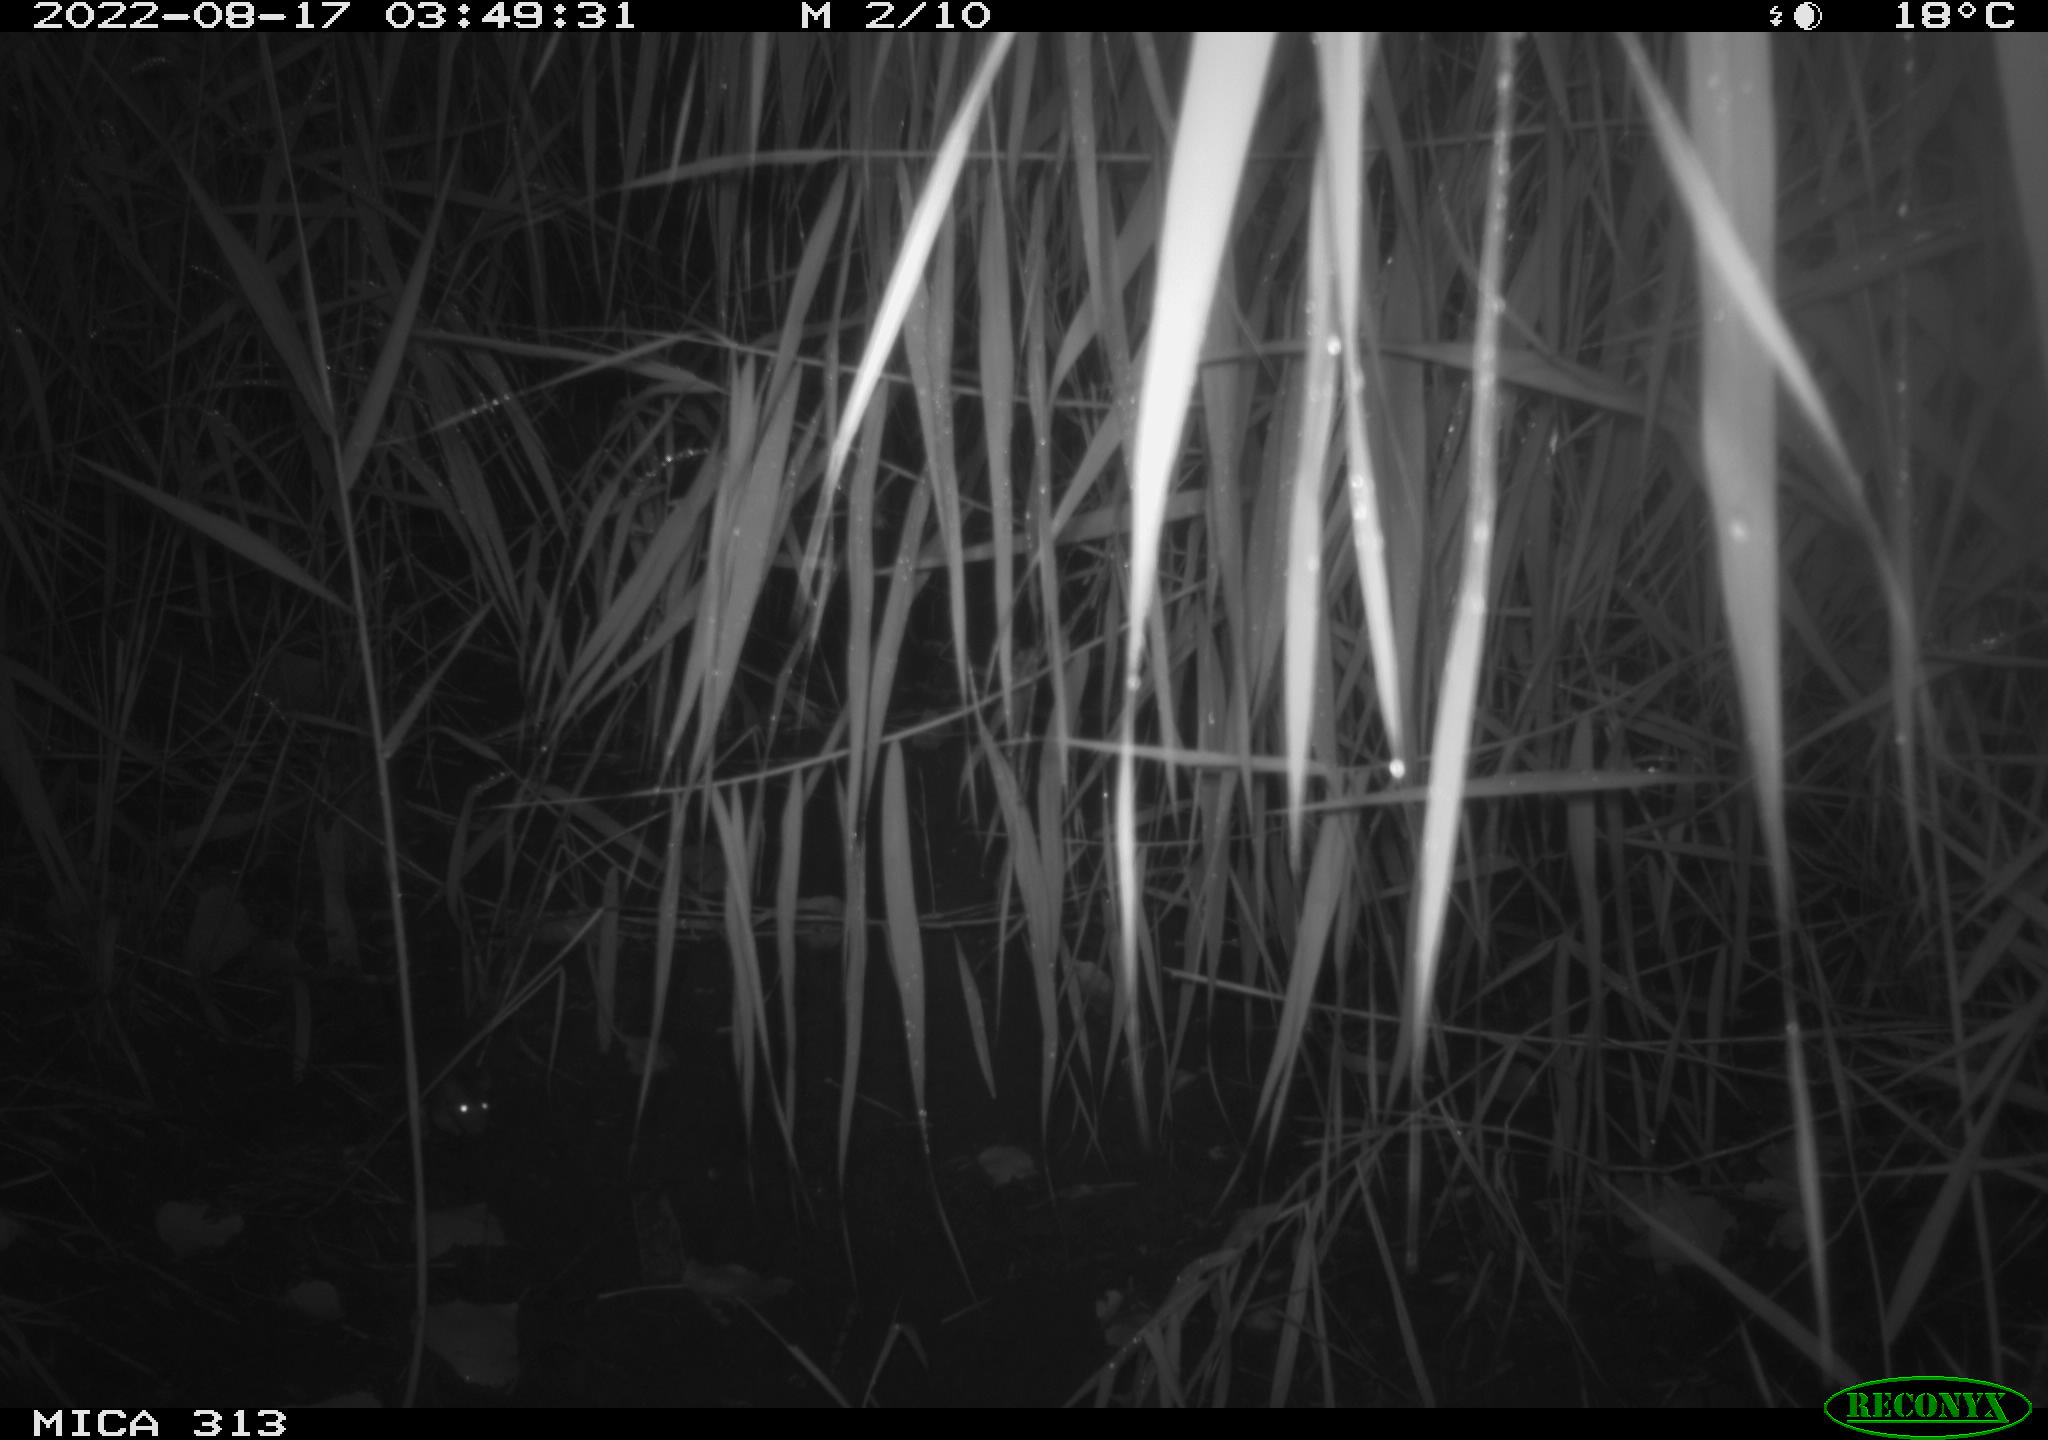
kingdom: Animalia
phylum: Chordata
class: Mammalia
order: Rodentia
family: Muridae
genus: Rattus
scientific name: Rattus norvegicus
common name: Brown rat
